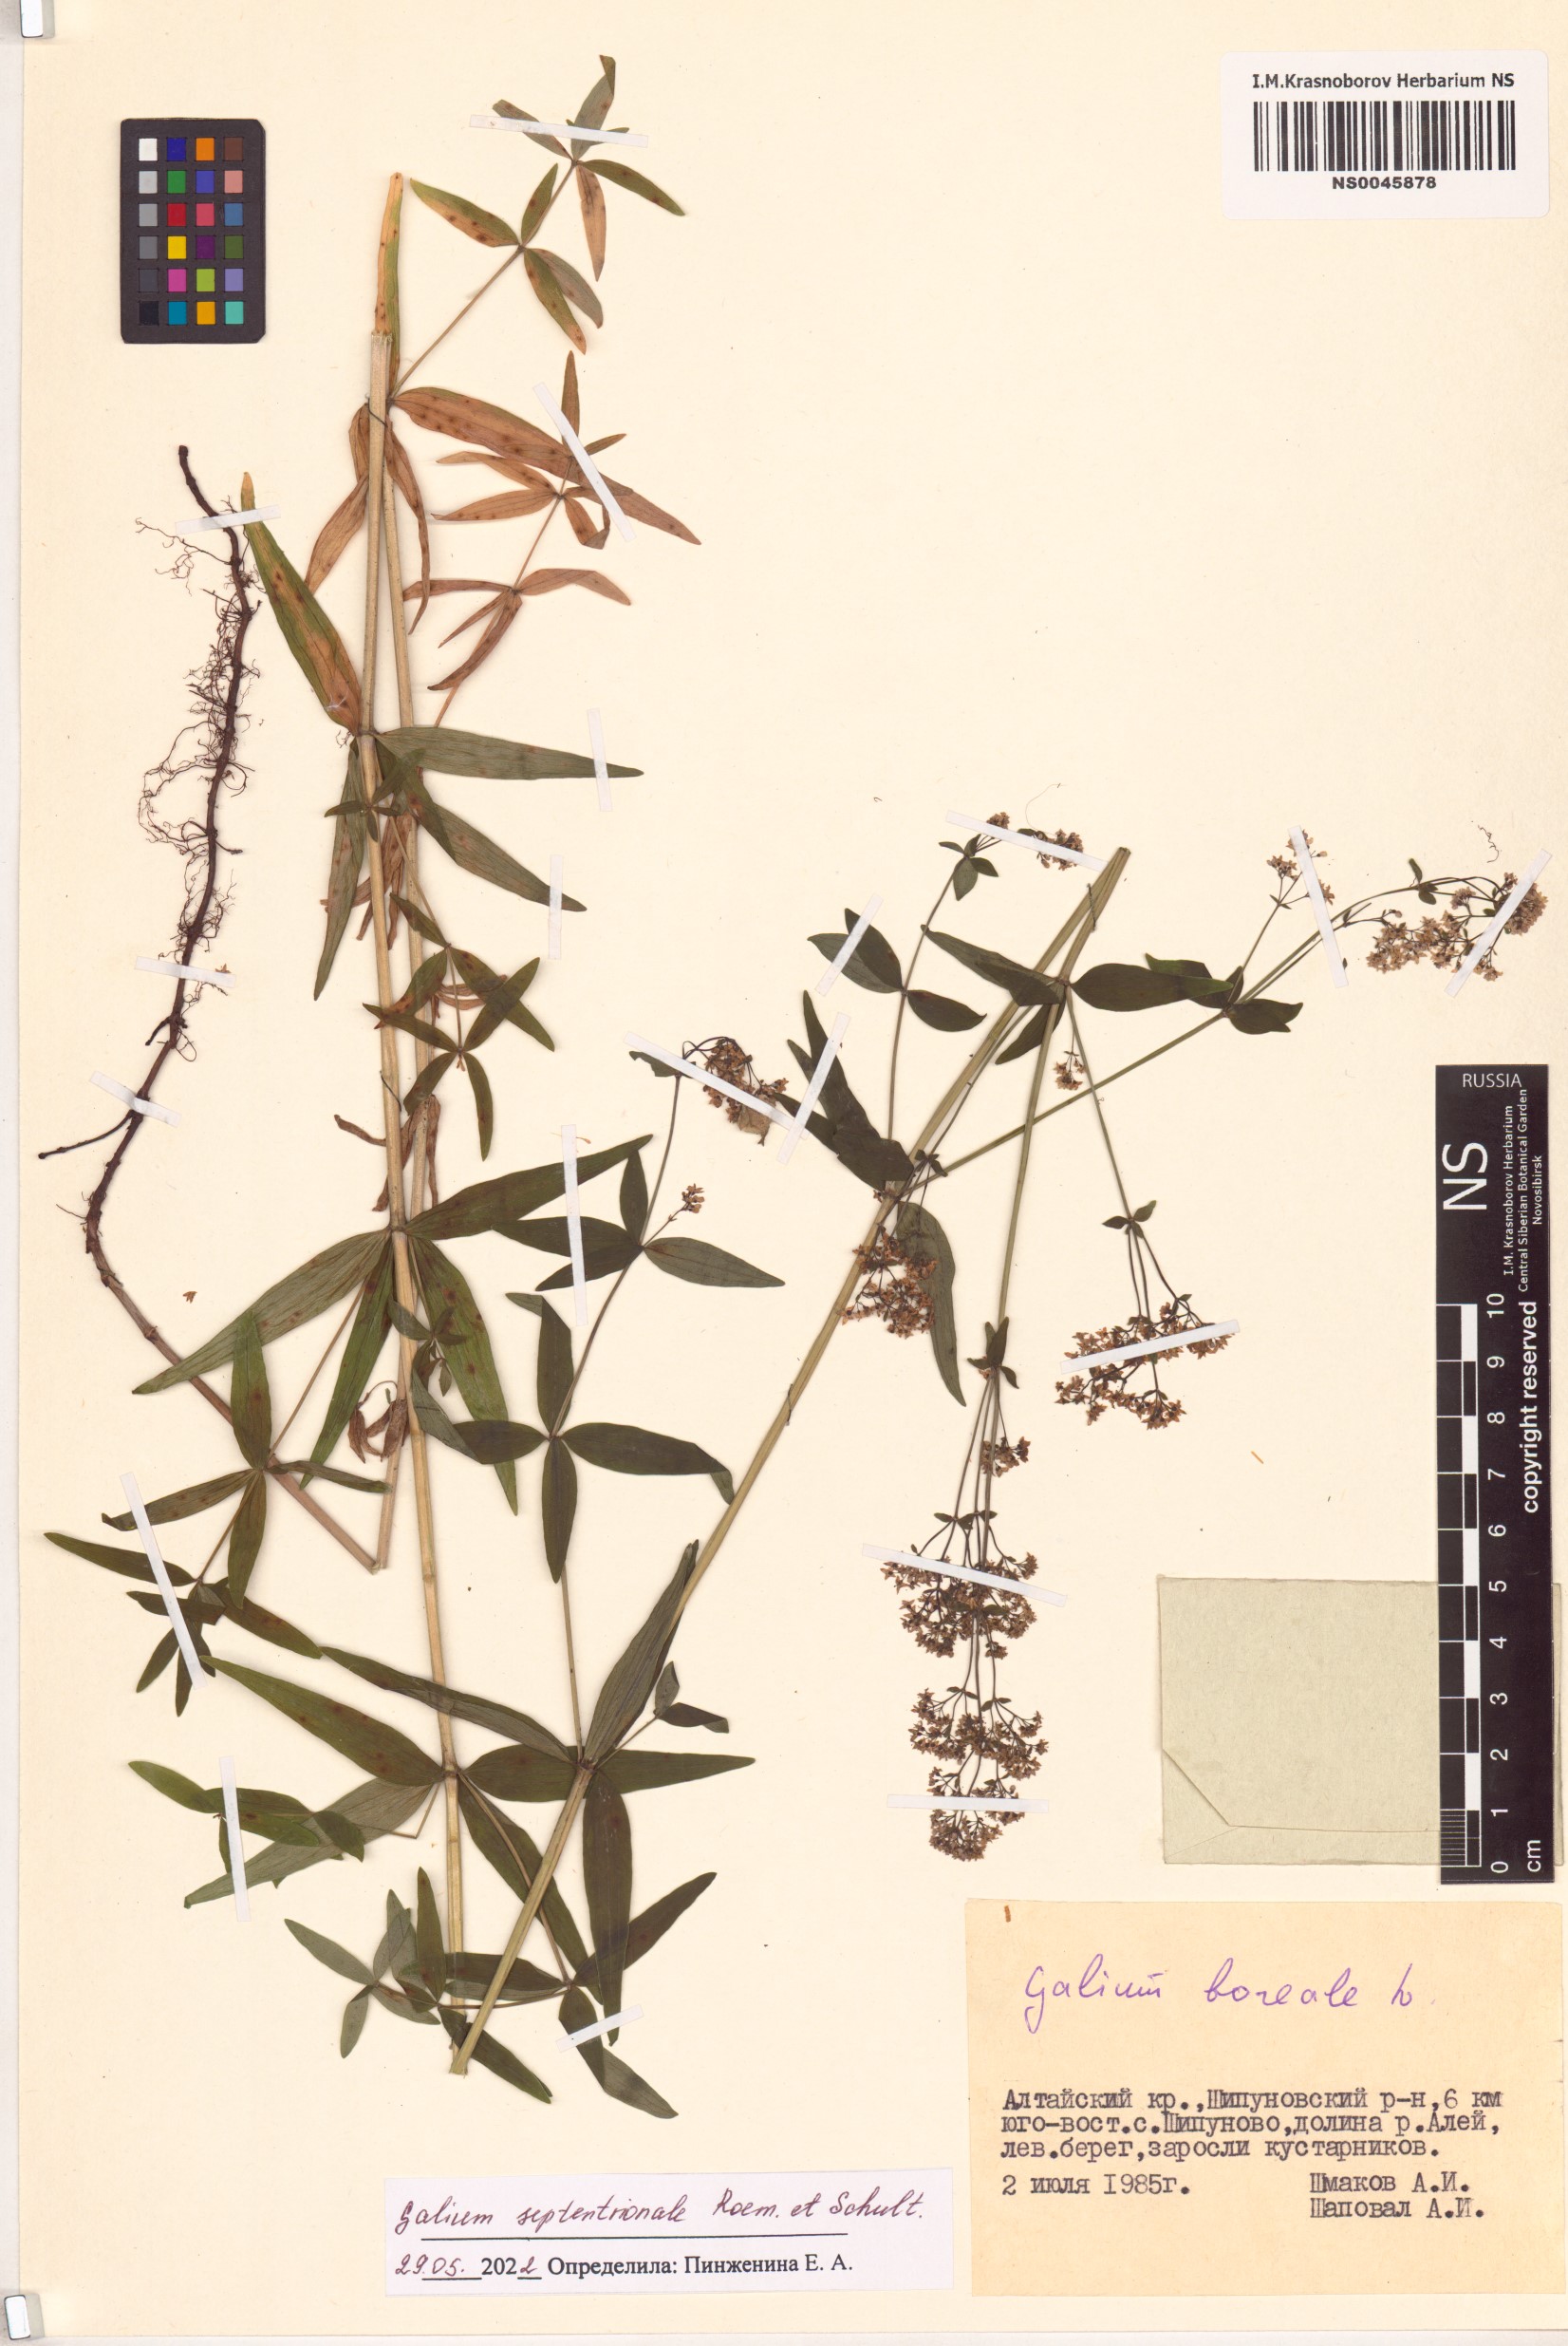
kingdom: Plantae
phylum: Tracheophyta
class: Magnoliopsida
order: Gentianales
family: Rubiaceae
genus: Galium
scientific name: Galium boreale
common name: Northern bedstraw
